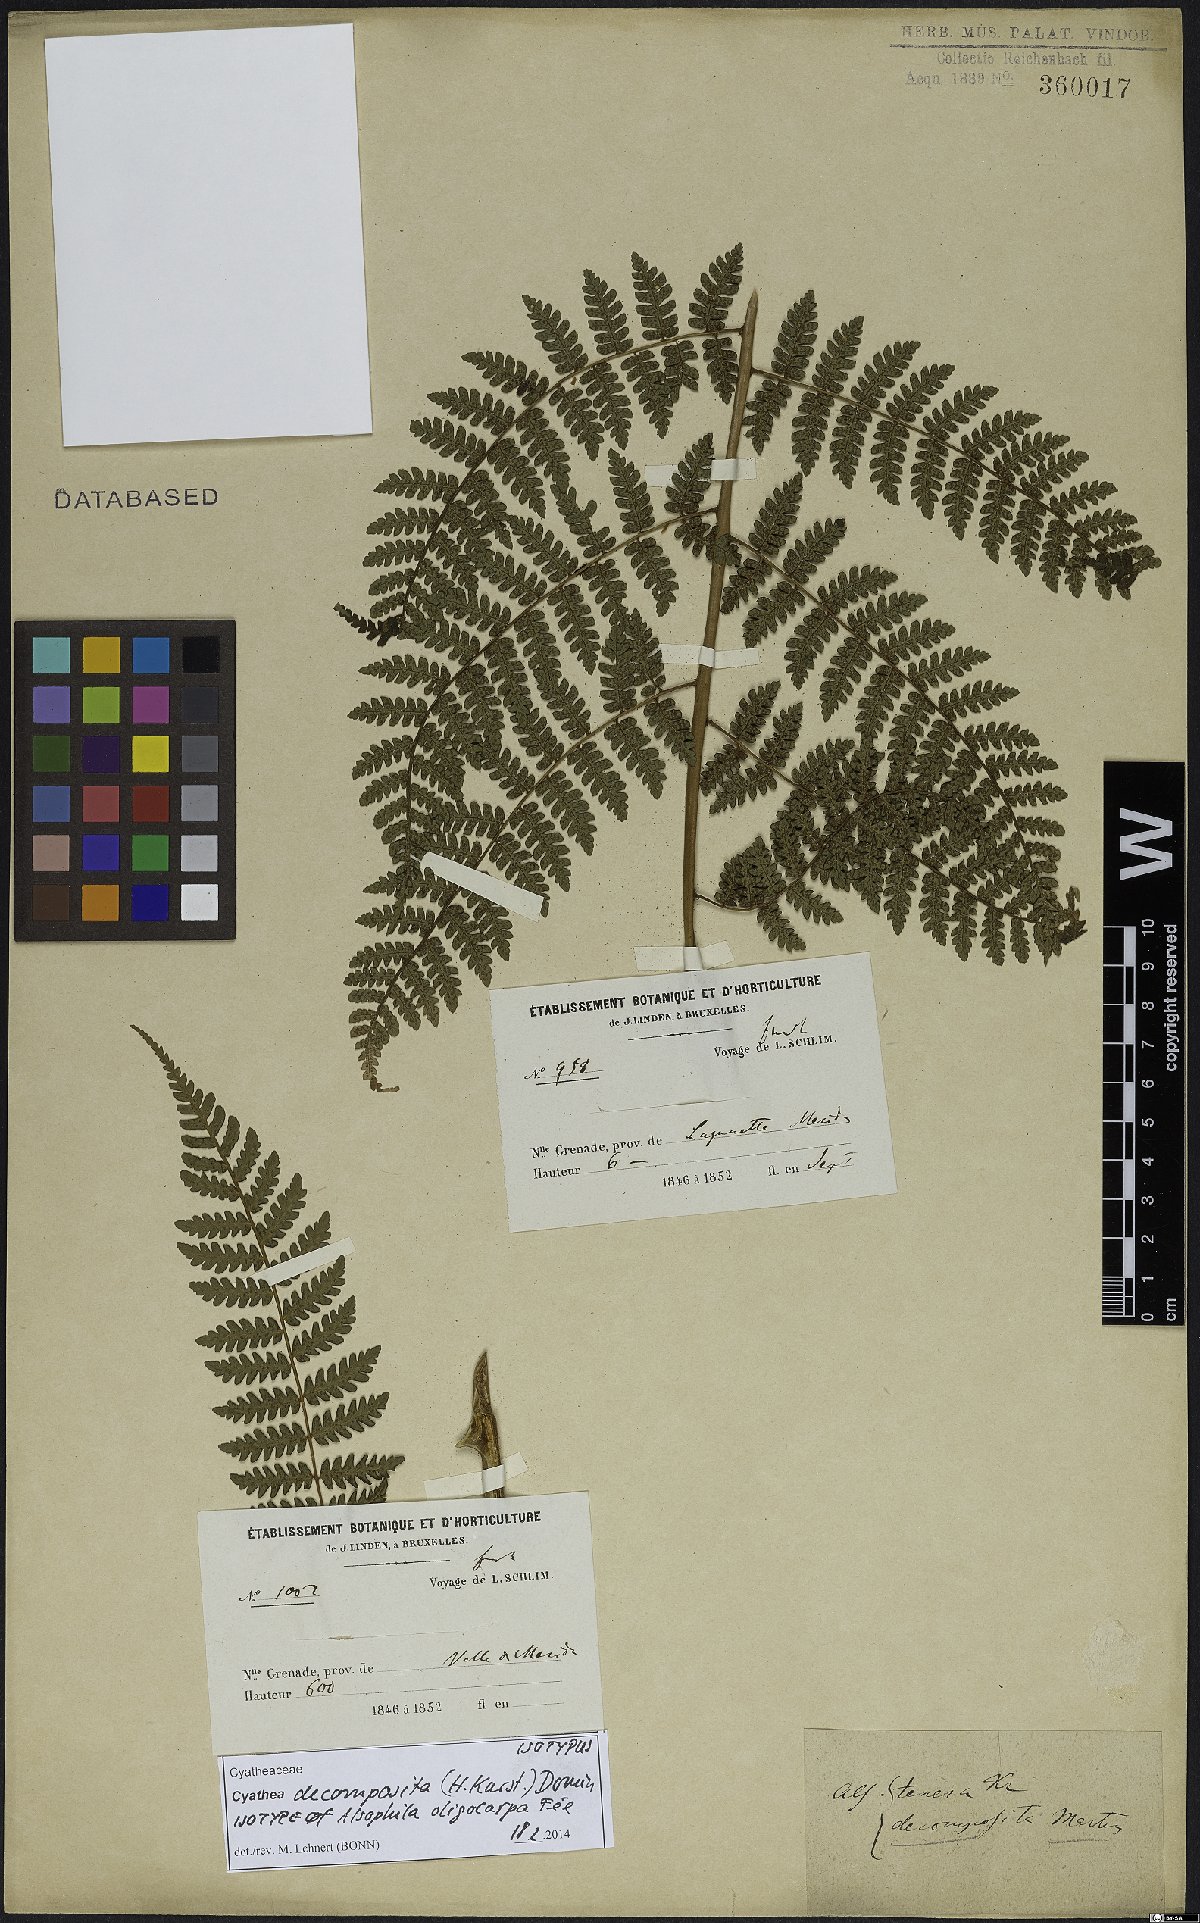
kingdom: Plantae
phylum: Tracheophyta
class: Polypodiopsida
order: Cyatheales
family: Cyatheaceae
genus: Cyathea
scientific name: Cyathea decomposita
